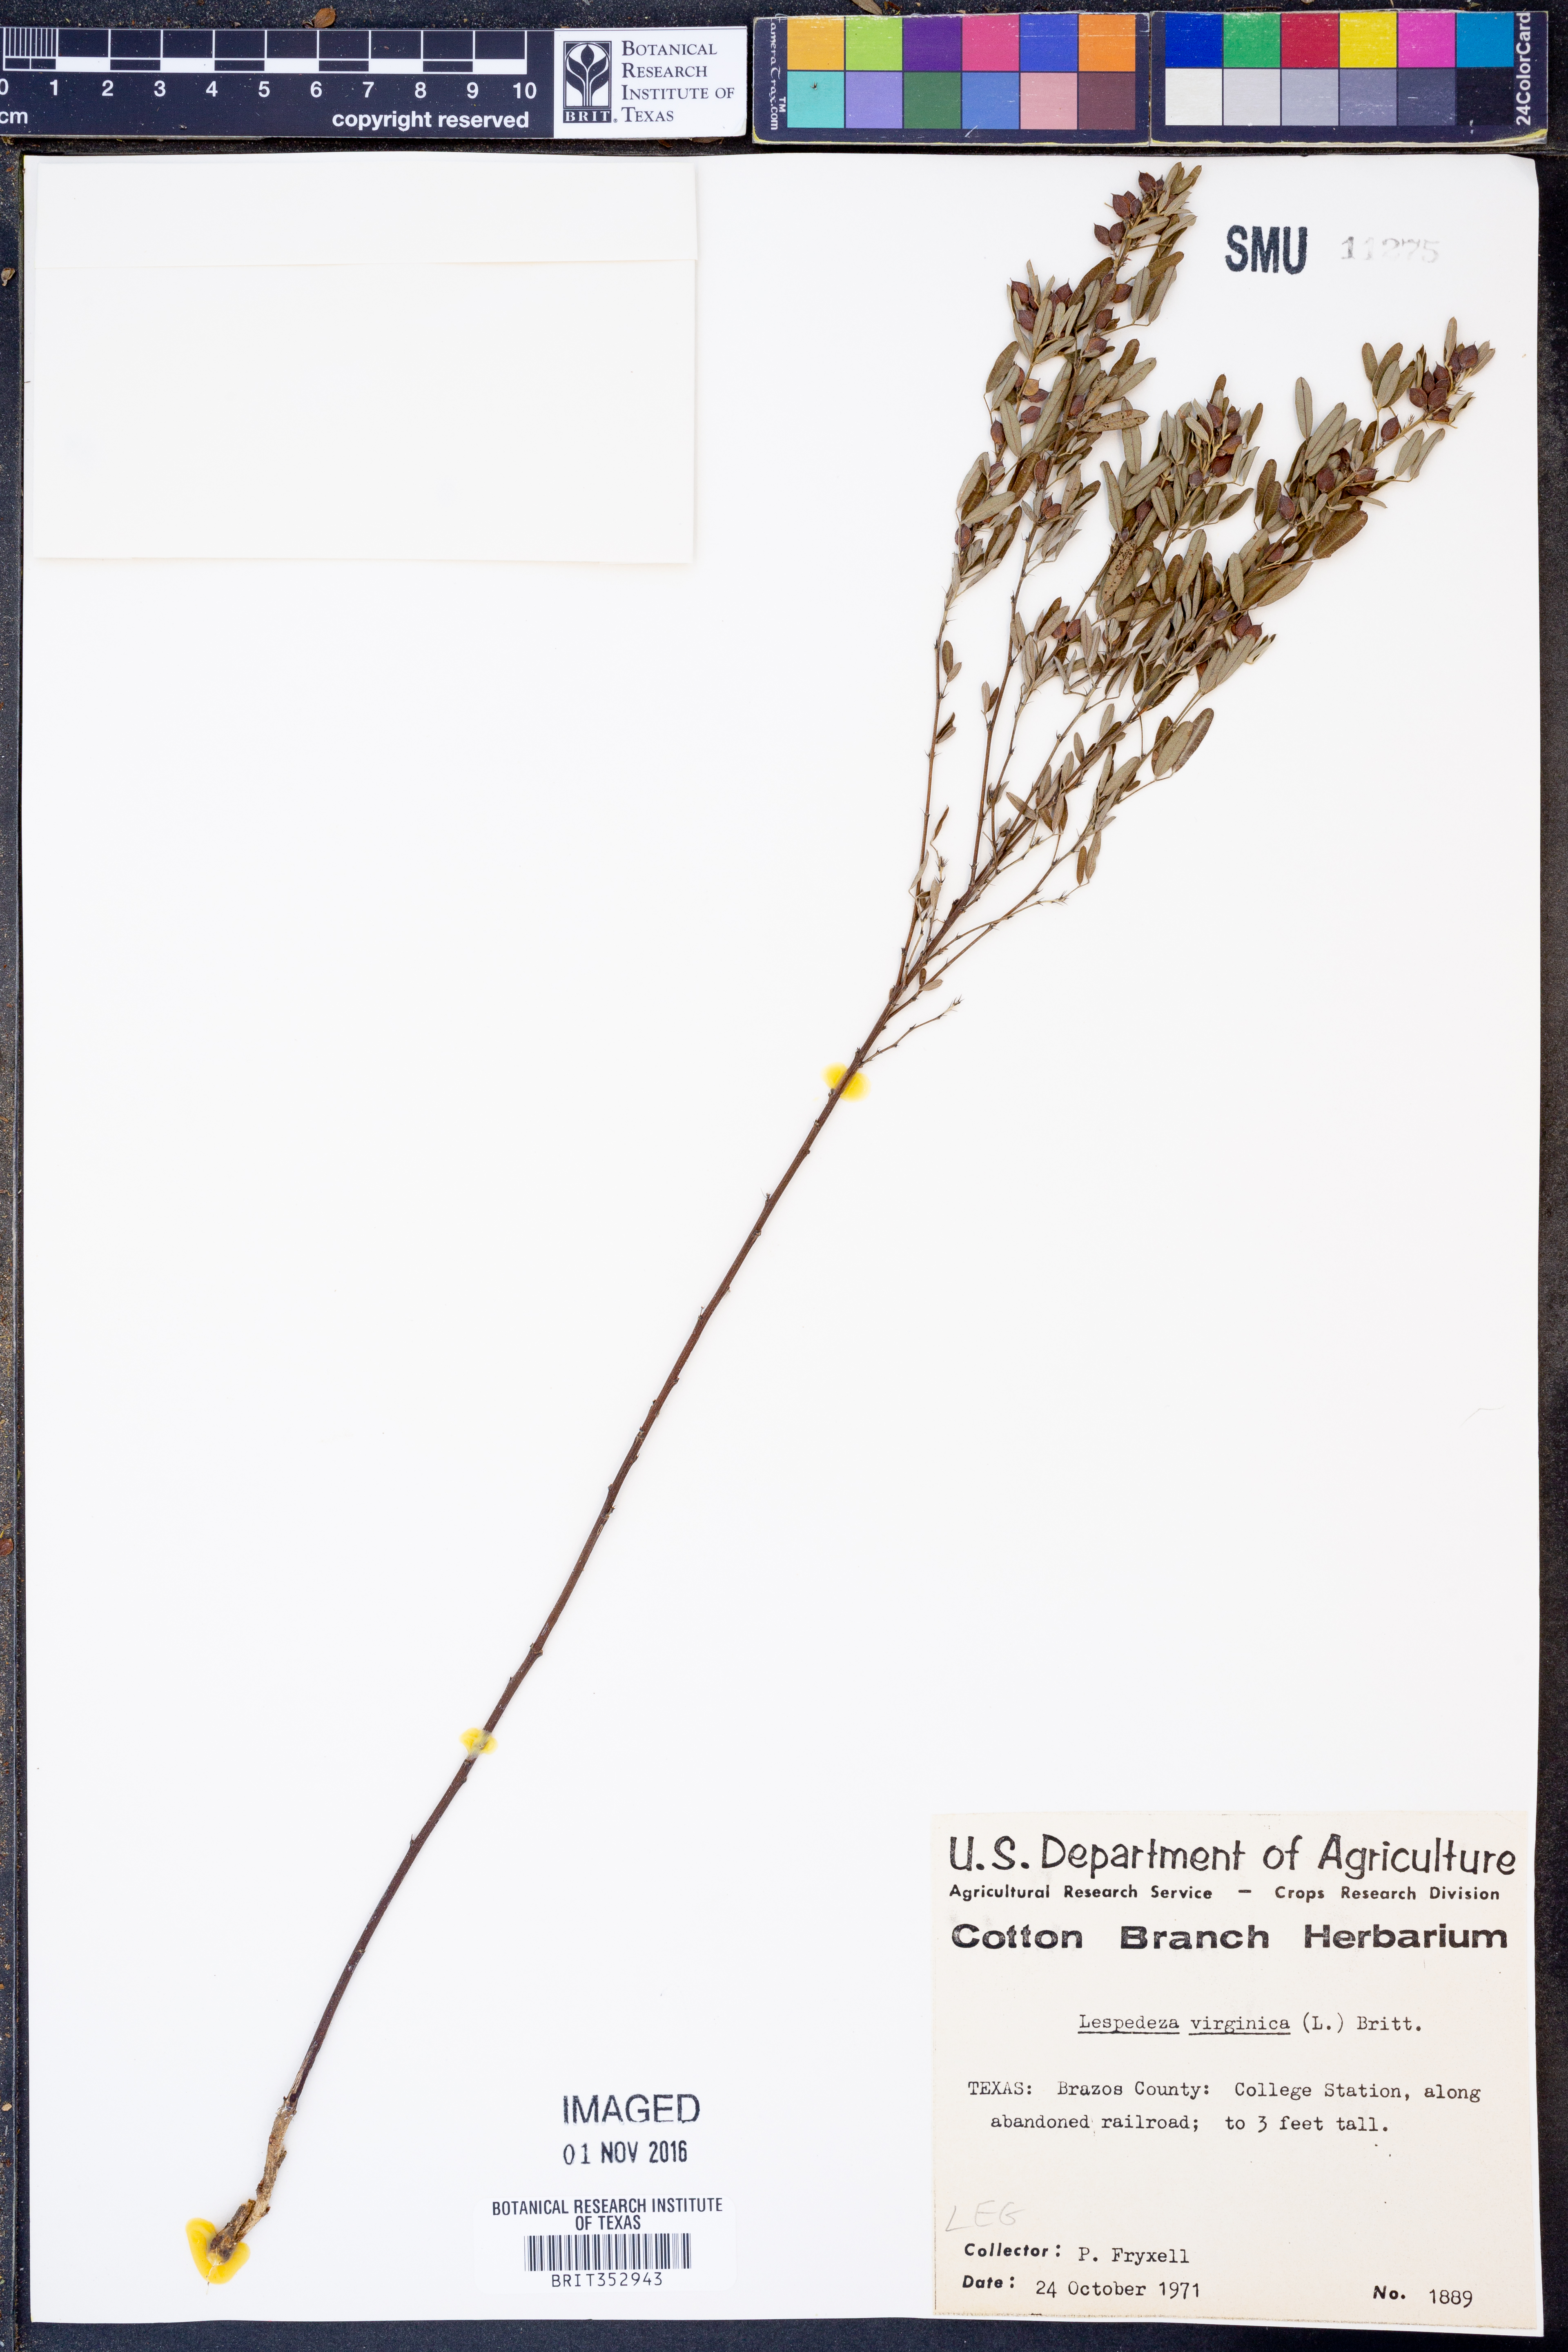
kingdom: Plantae
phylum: Tracheophyta
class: Magnoliopsida
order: Fabales
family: Fabaceae
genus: Lespedeza
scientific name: Lespedeza virginica
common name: Slender bush-clover
